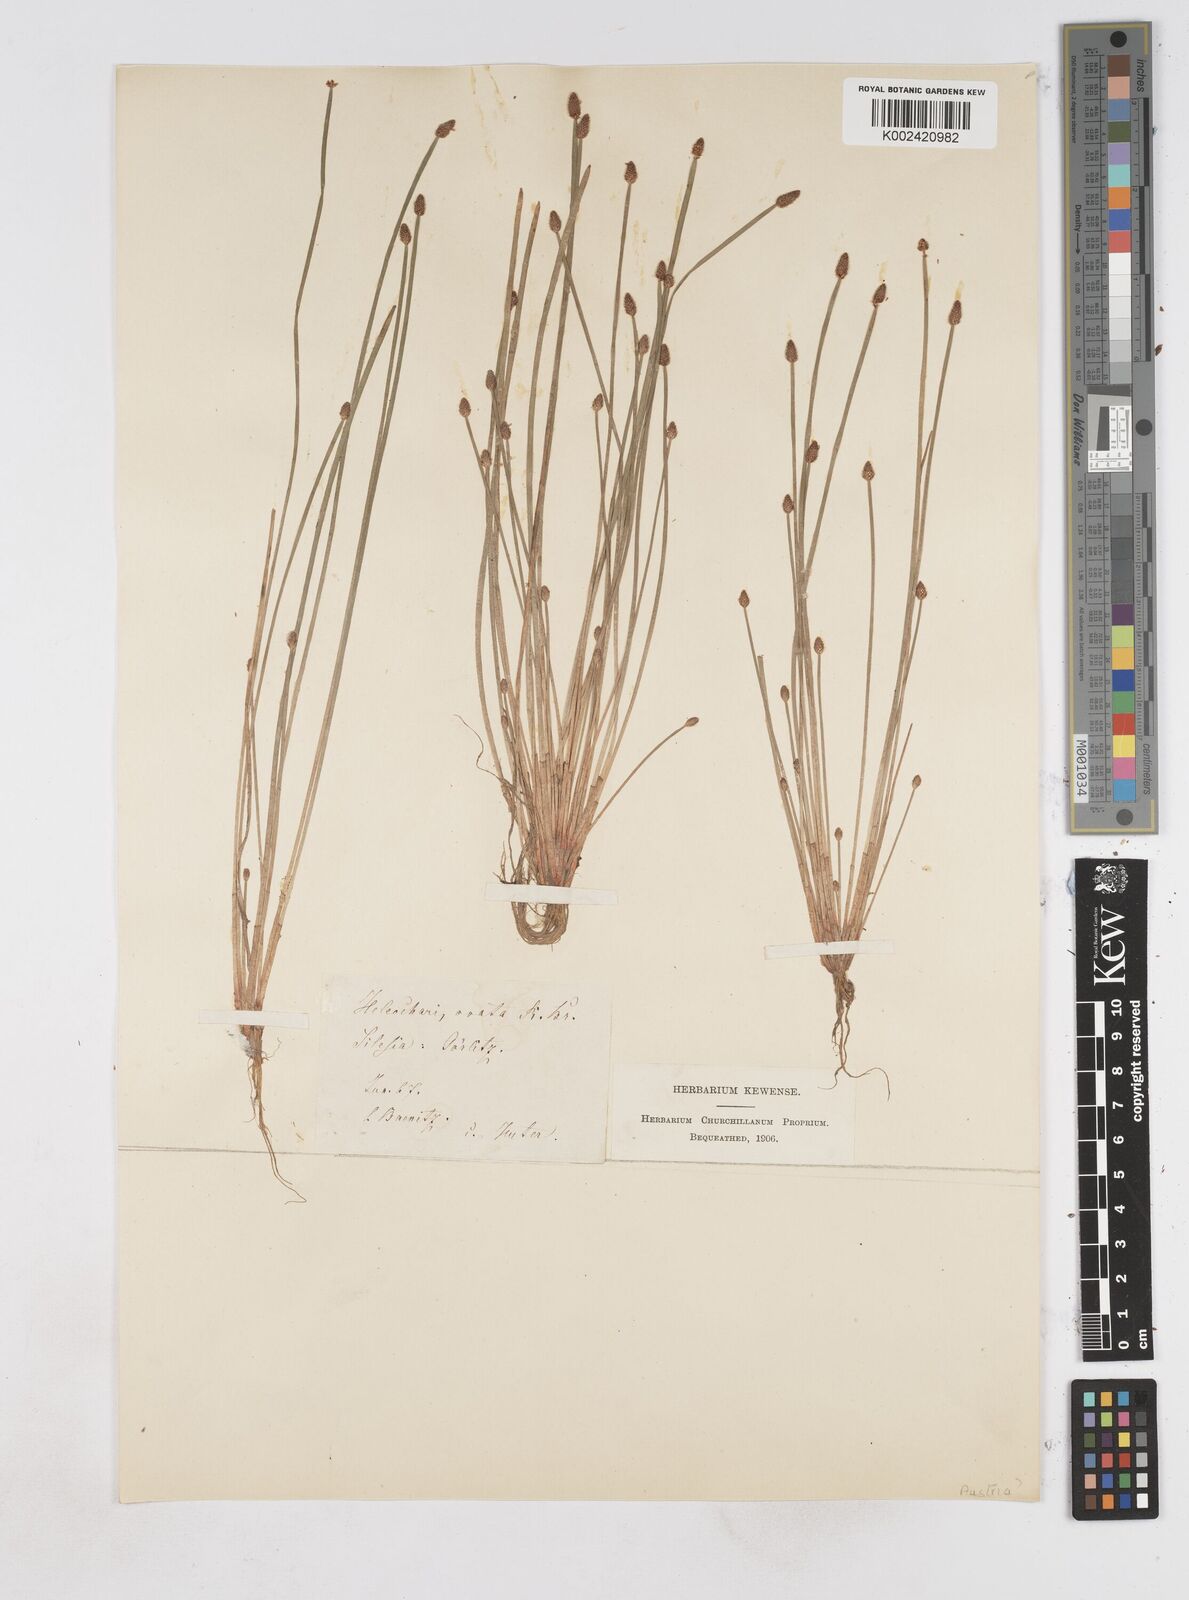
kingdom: Plantae
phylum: Tracheophyta
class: Liliopsida
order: Poales
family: Cyperaceae
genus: Eleocharis
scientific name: Eleocharis ovata
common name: Oval spike-rush
